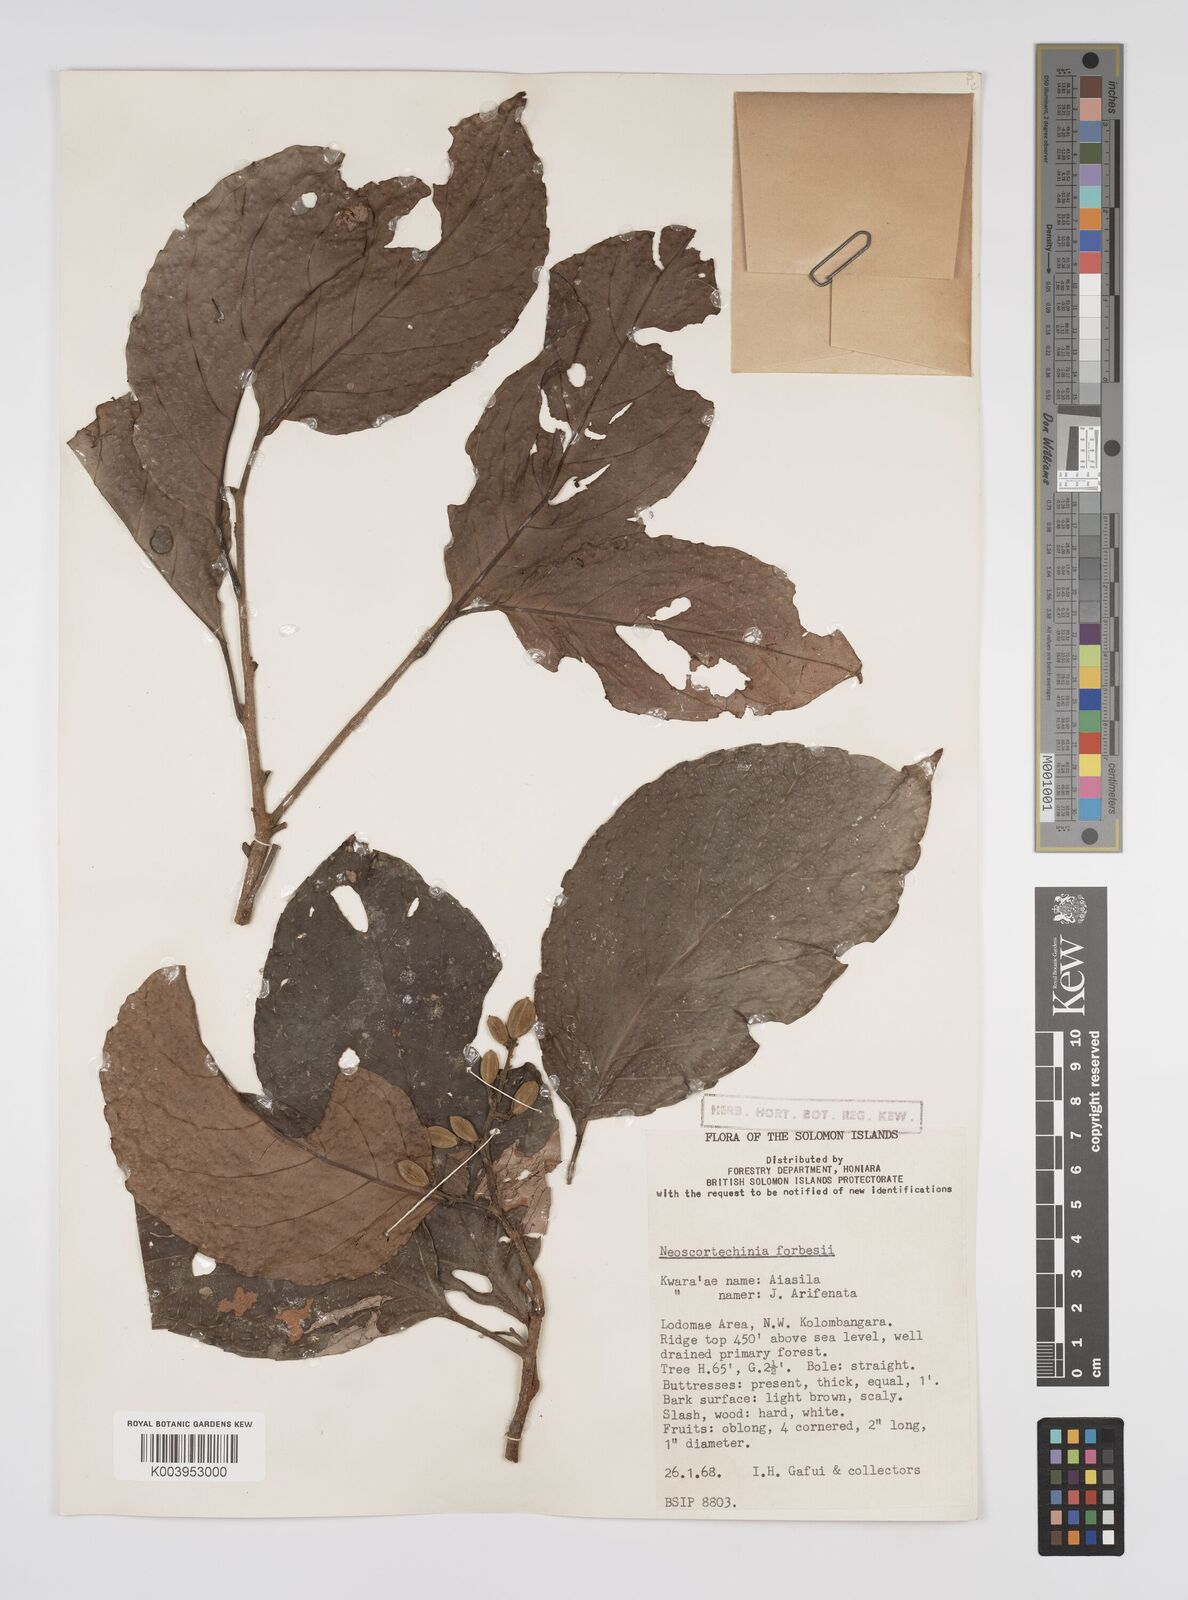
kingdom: Plantae
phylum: Tracheophyta
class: Magnoliopsida
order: Malpighiales
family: Euphorbiaceae
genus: Neoscortechinia
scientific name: Neoscortechinia forbesii
